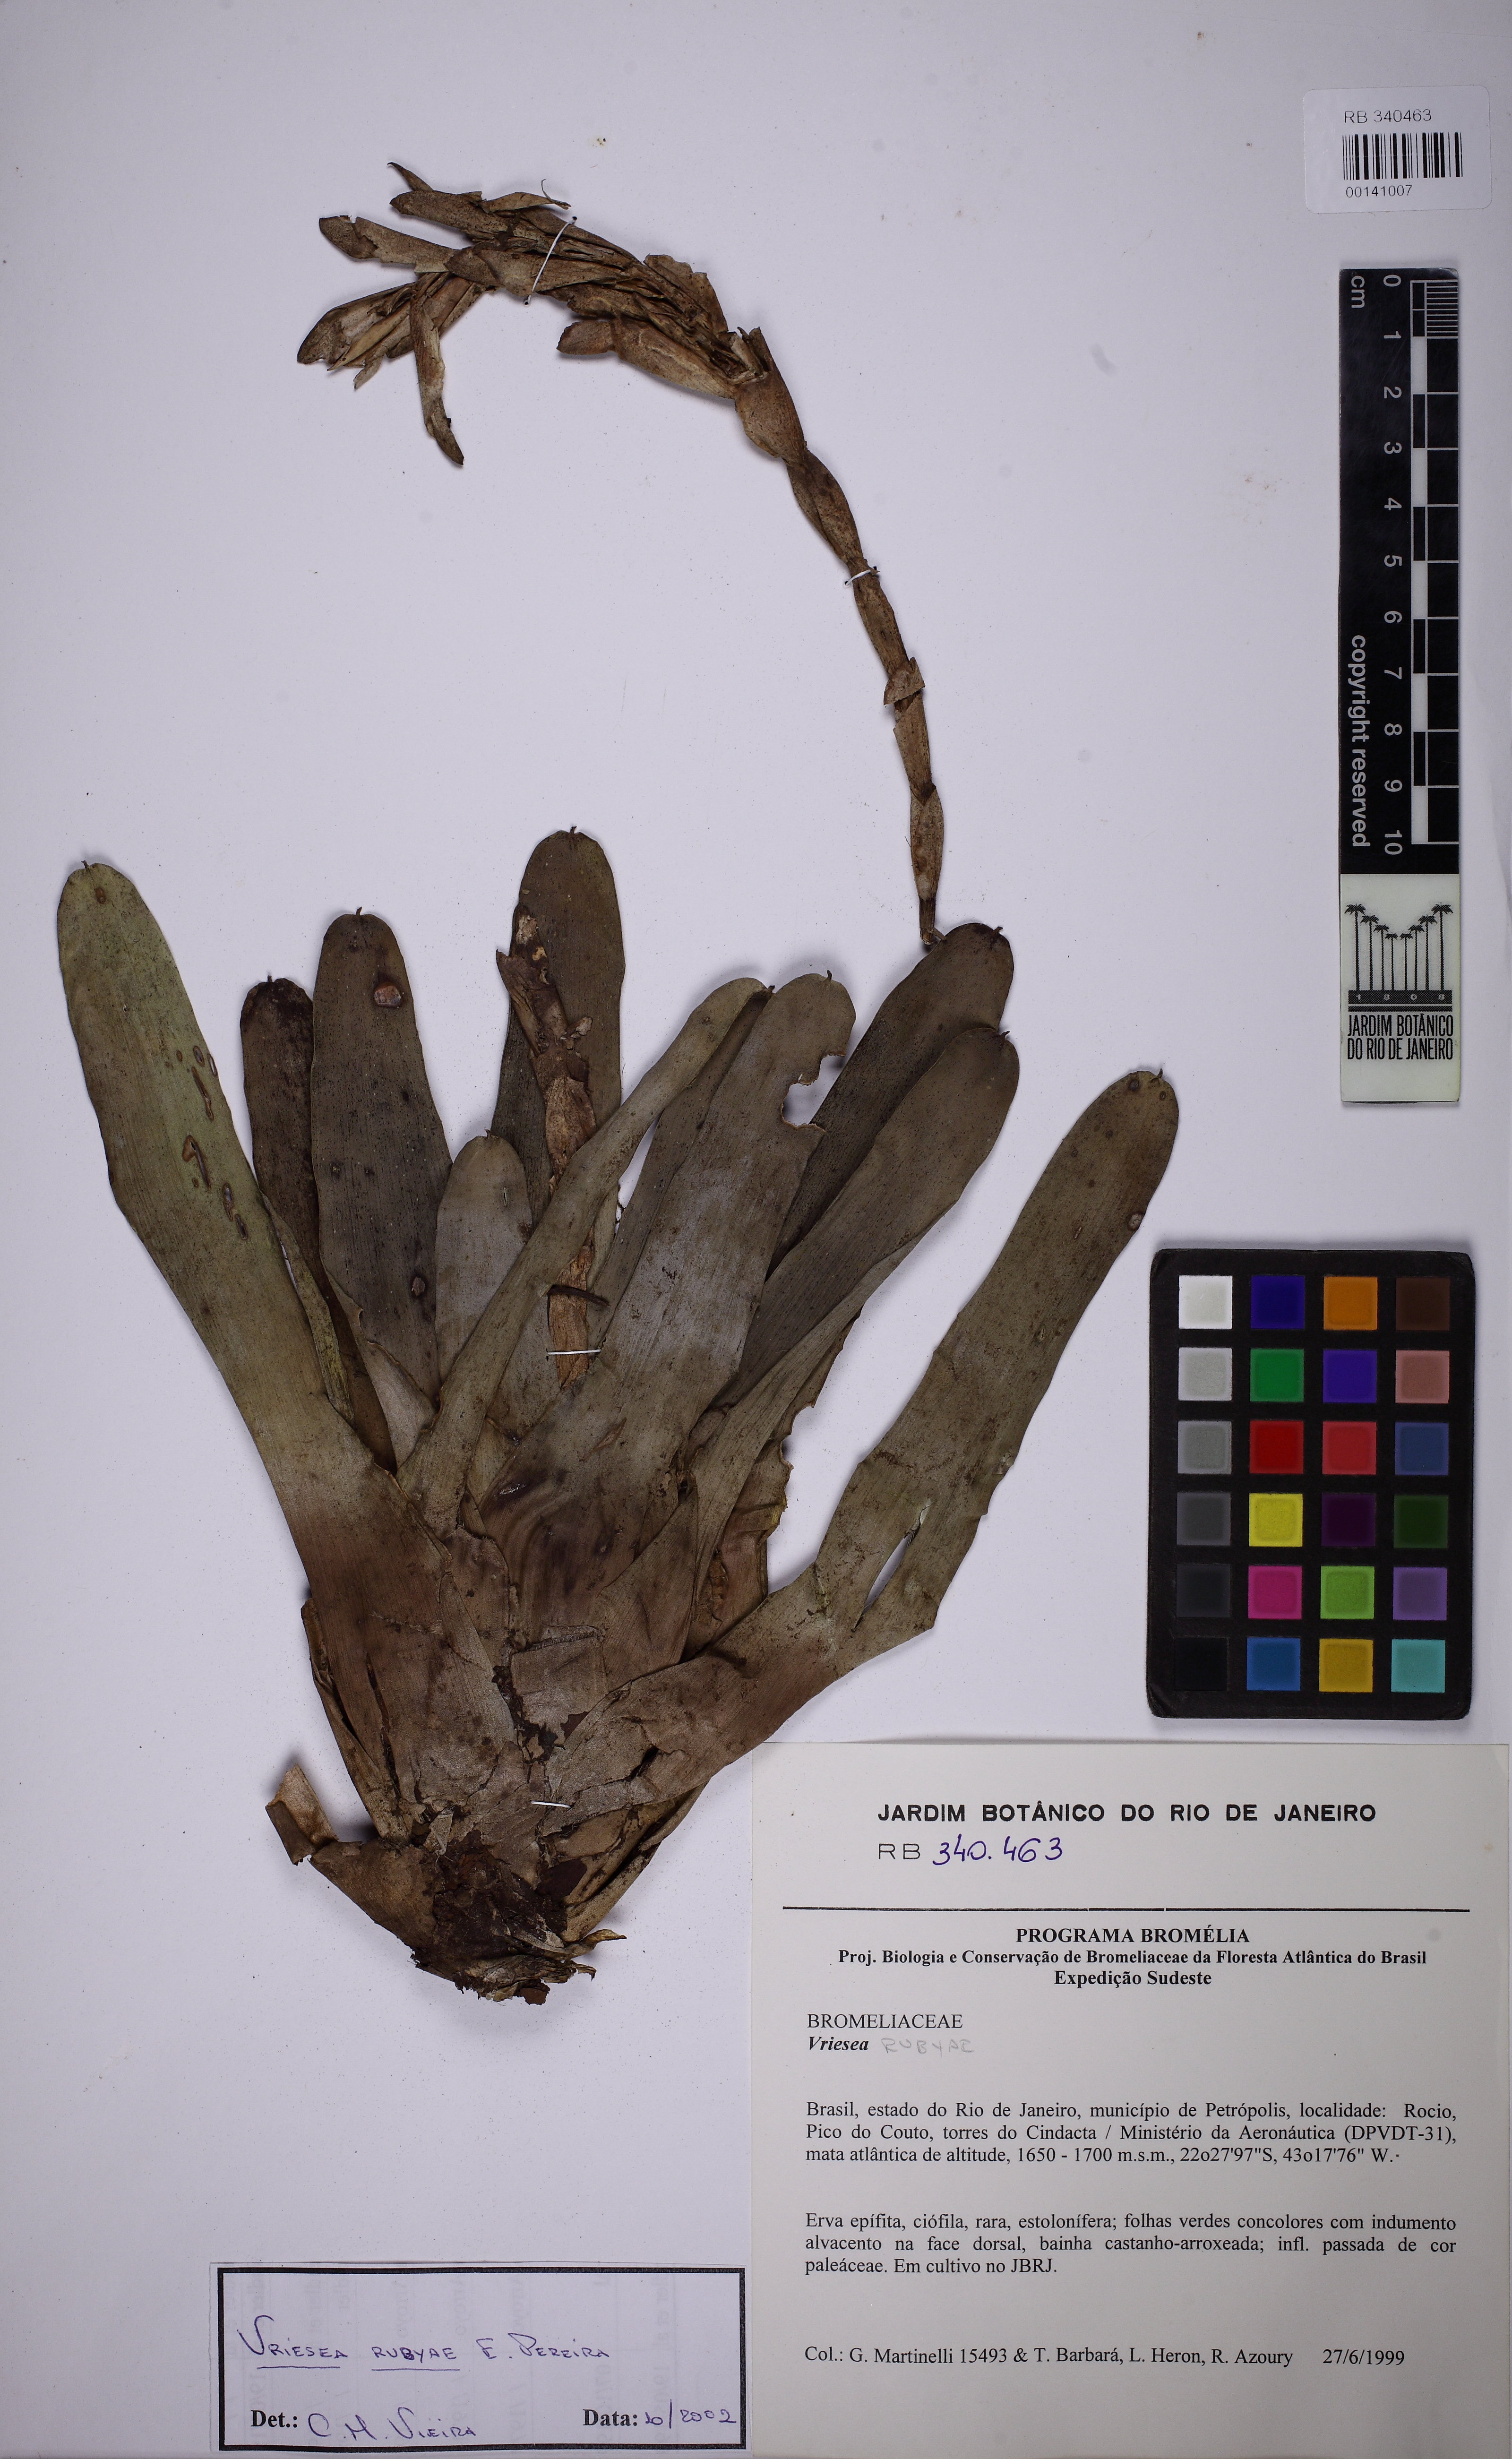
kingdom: Plantae
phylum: Tracheophyta
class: Liliopsida
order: Poales
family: Bromeliaceae
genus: Vriesea
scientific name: Vriesea rubyae
